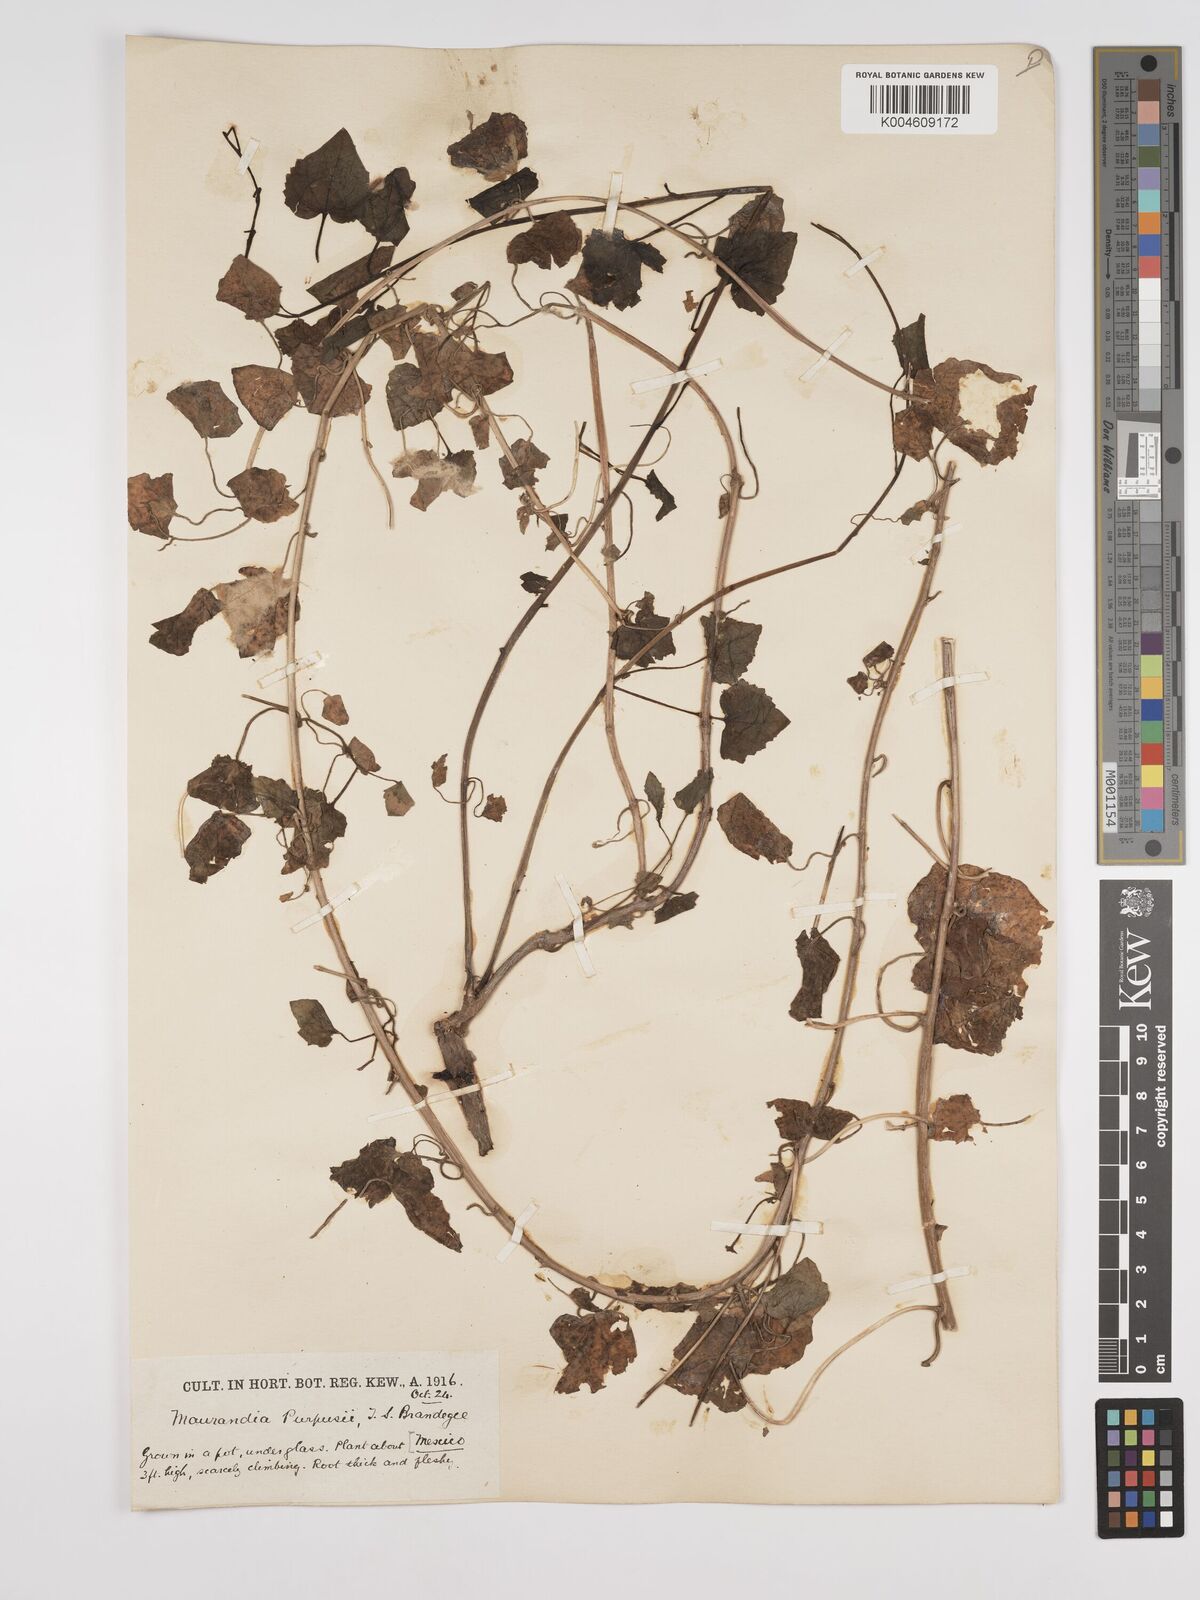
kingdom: Plantae
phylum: Tracheophyta
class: Magnoliopsida
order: Lamiales
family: Plantaginaceae
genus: Lophospermum
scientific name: Lophospermum purpusii
